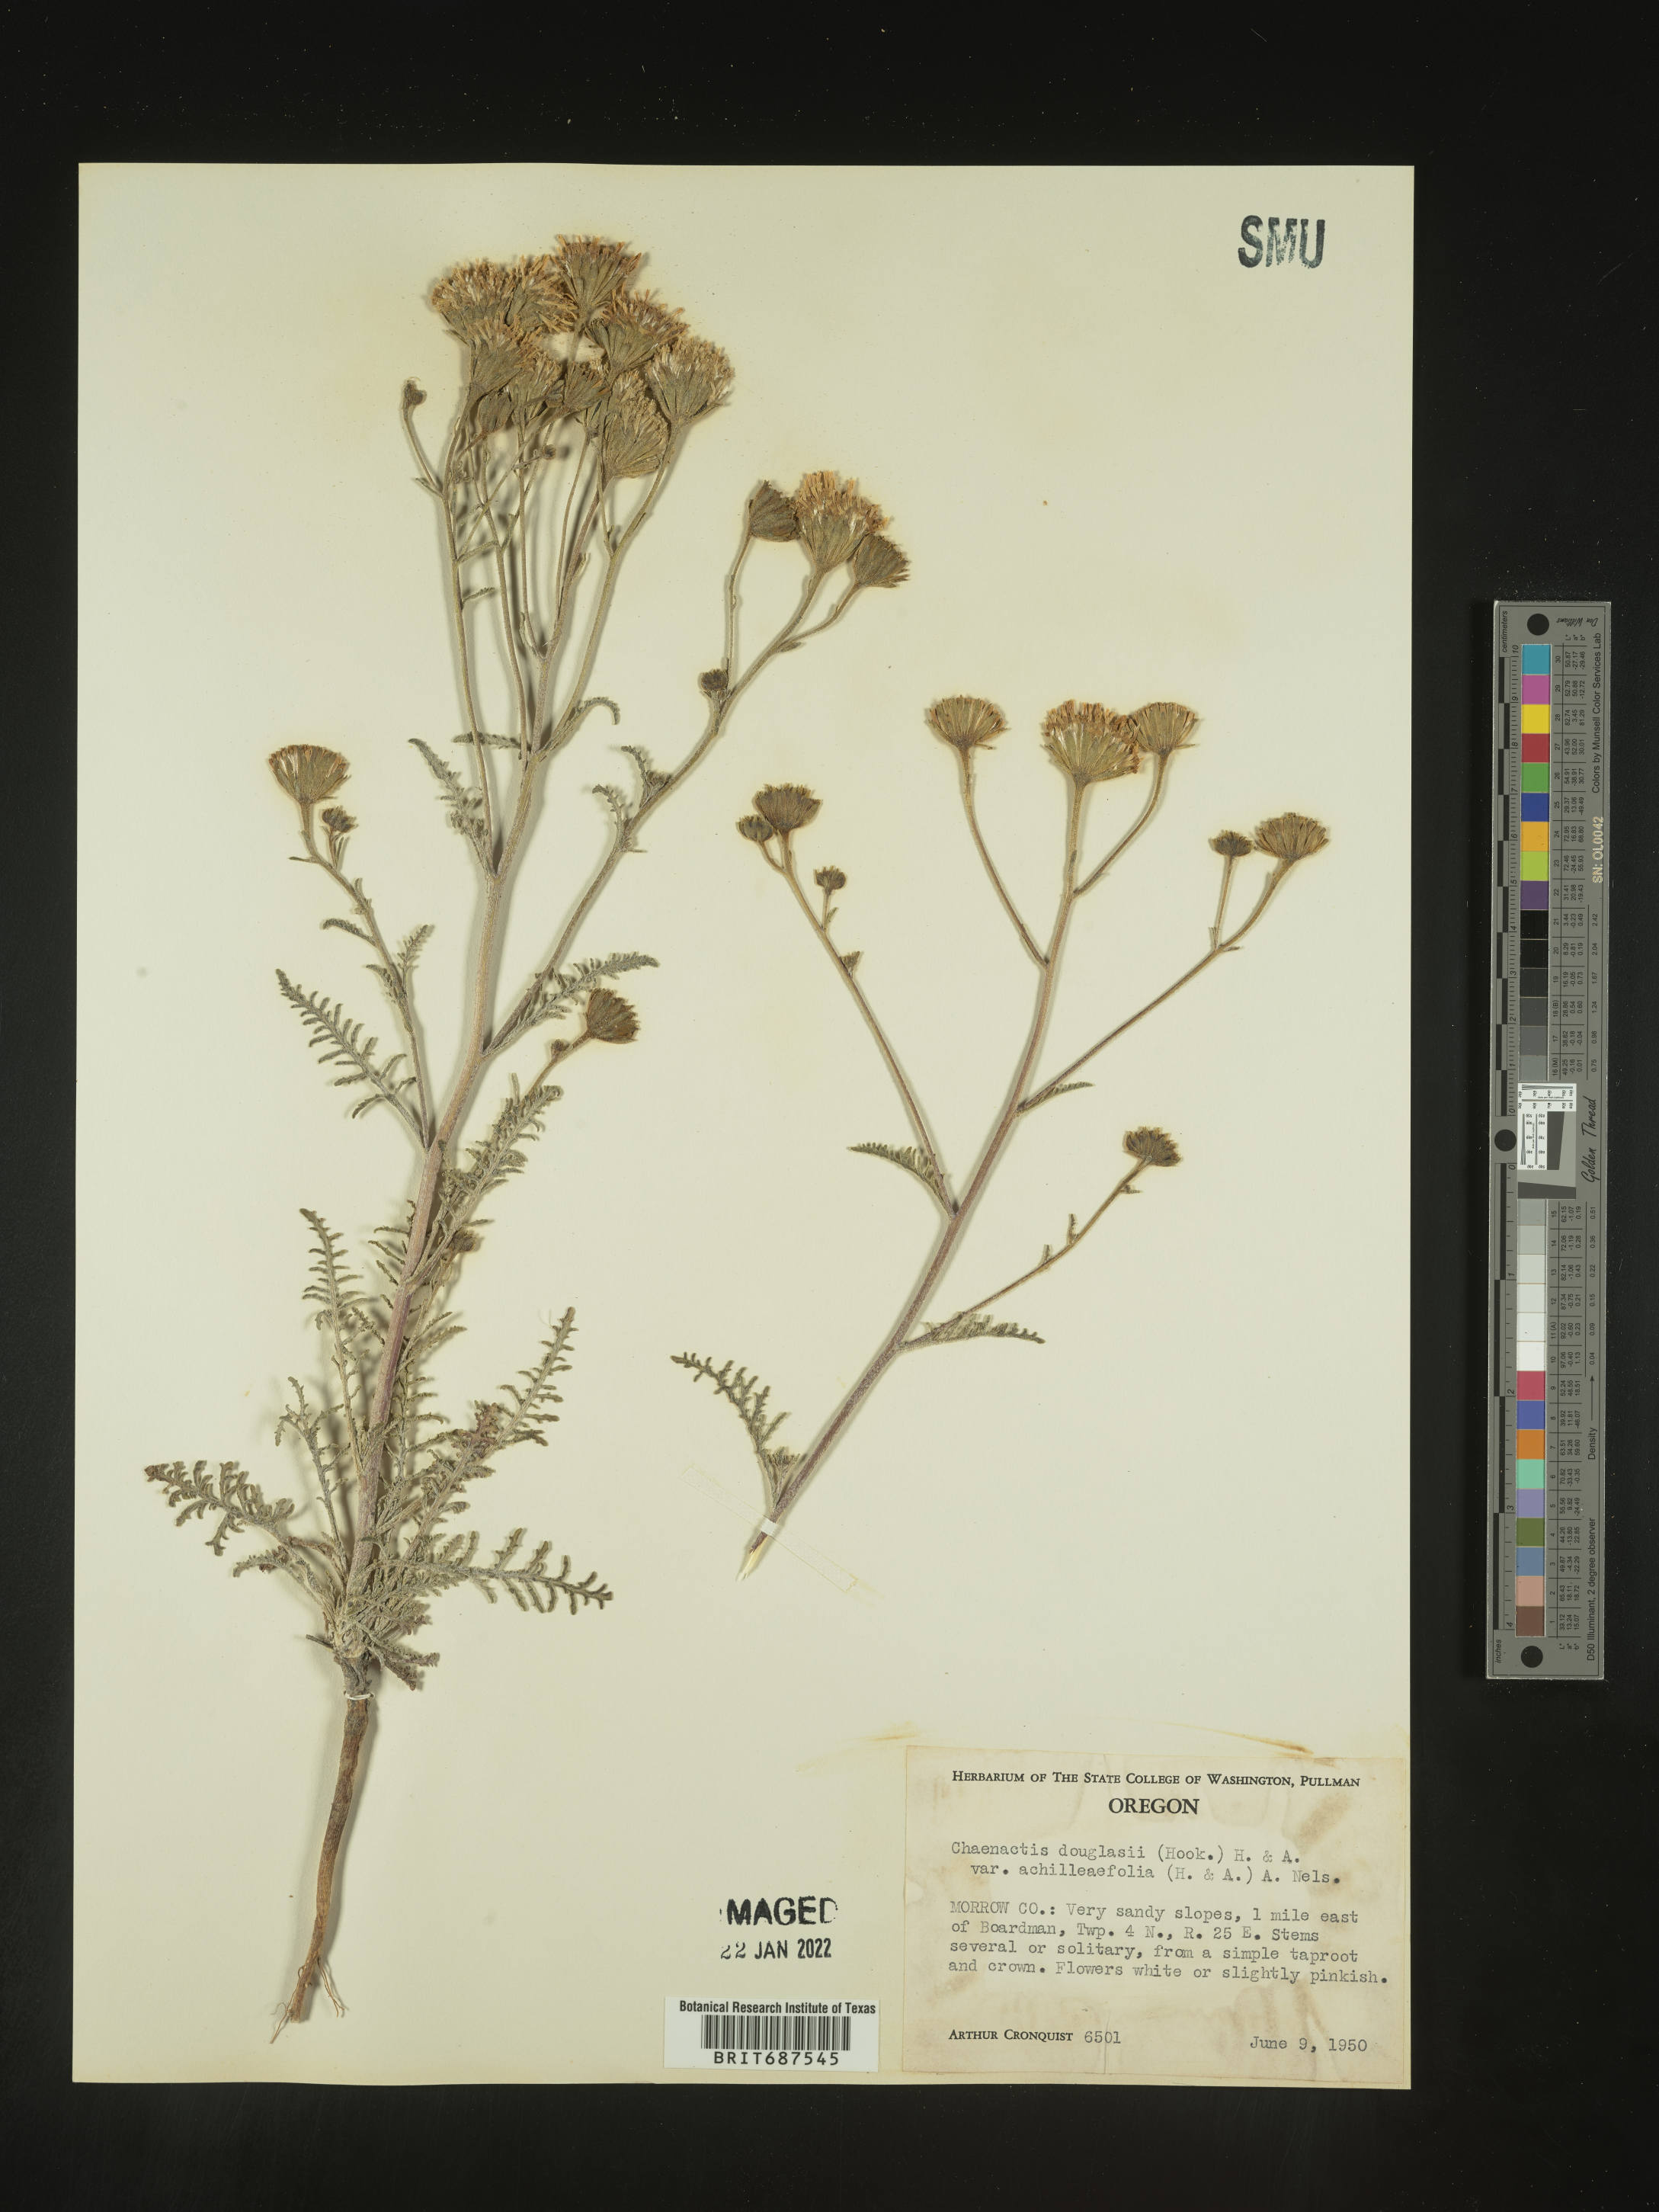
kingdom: Plantae
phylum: Tracheophyta
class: Magnoliopsida
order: Asterales
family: Asteraceae
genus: Chaenactis
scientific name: Chaenactis douglasii
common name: Hoary pincushion
